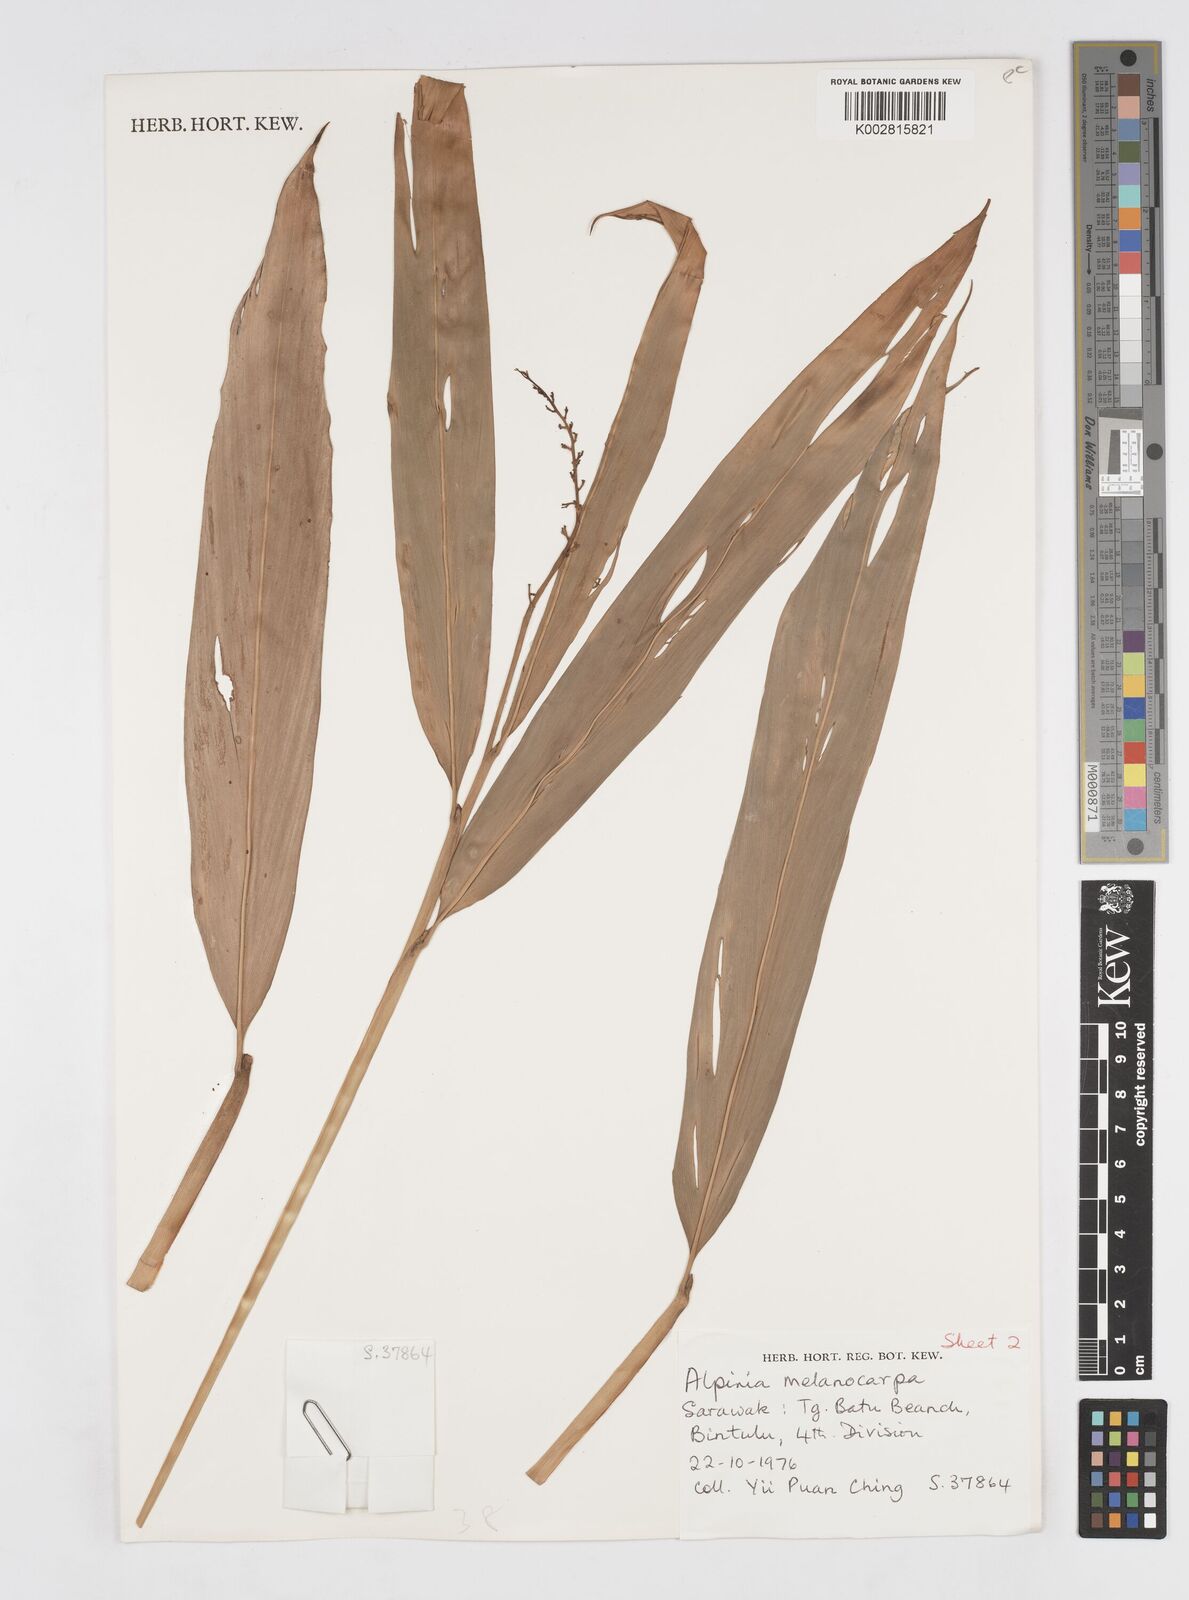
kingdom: Plantae
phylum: Tracheophyta
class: Liliopsida
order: Zingiberales
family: Zingiberaceae
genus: Alpinia
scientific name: Alpinia aquatica
